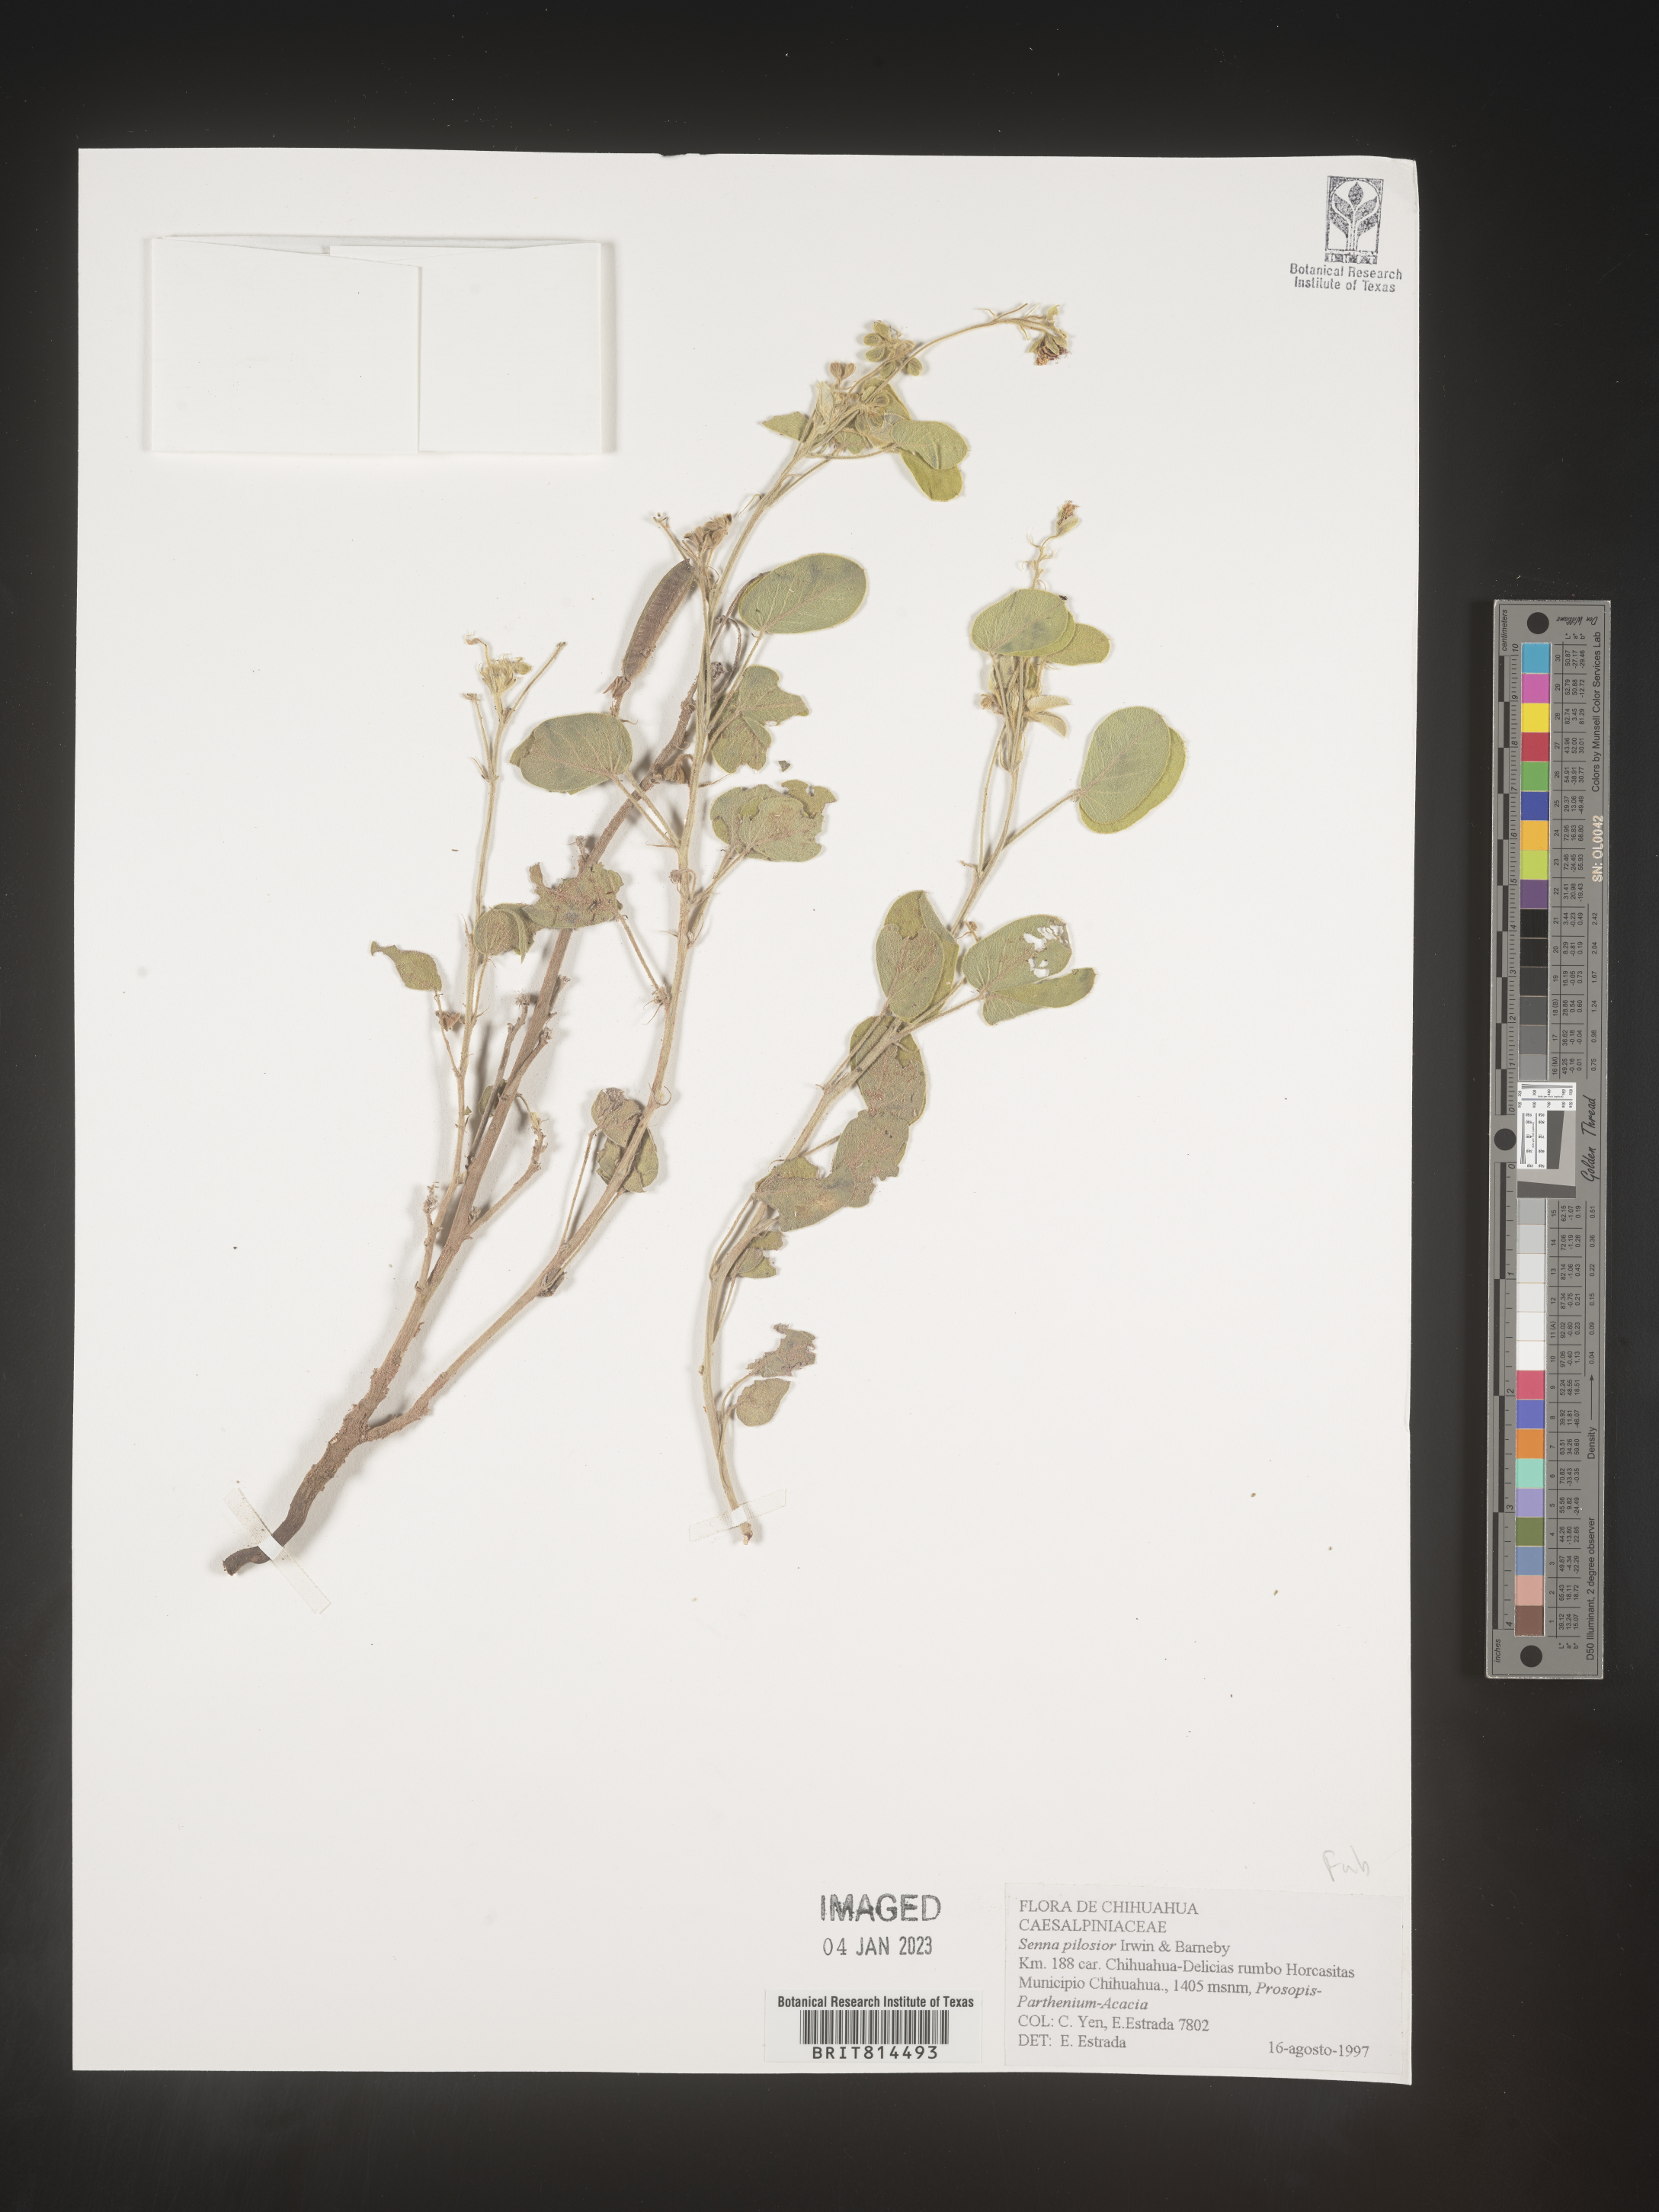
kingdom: Plantae
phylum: Tracheophyta
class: Magnoliopsida
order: Fabales
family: Fabaceae
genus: Caesalpinia
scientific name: Caesalpinia
